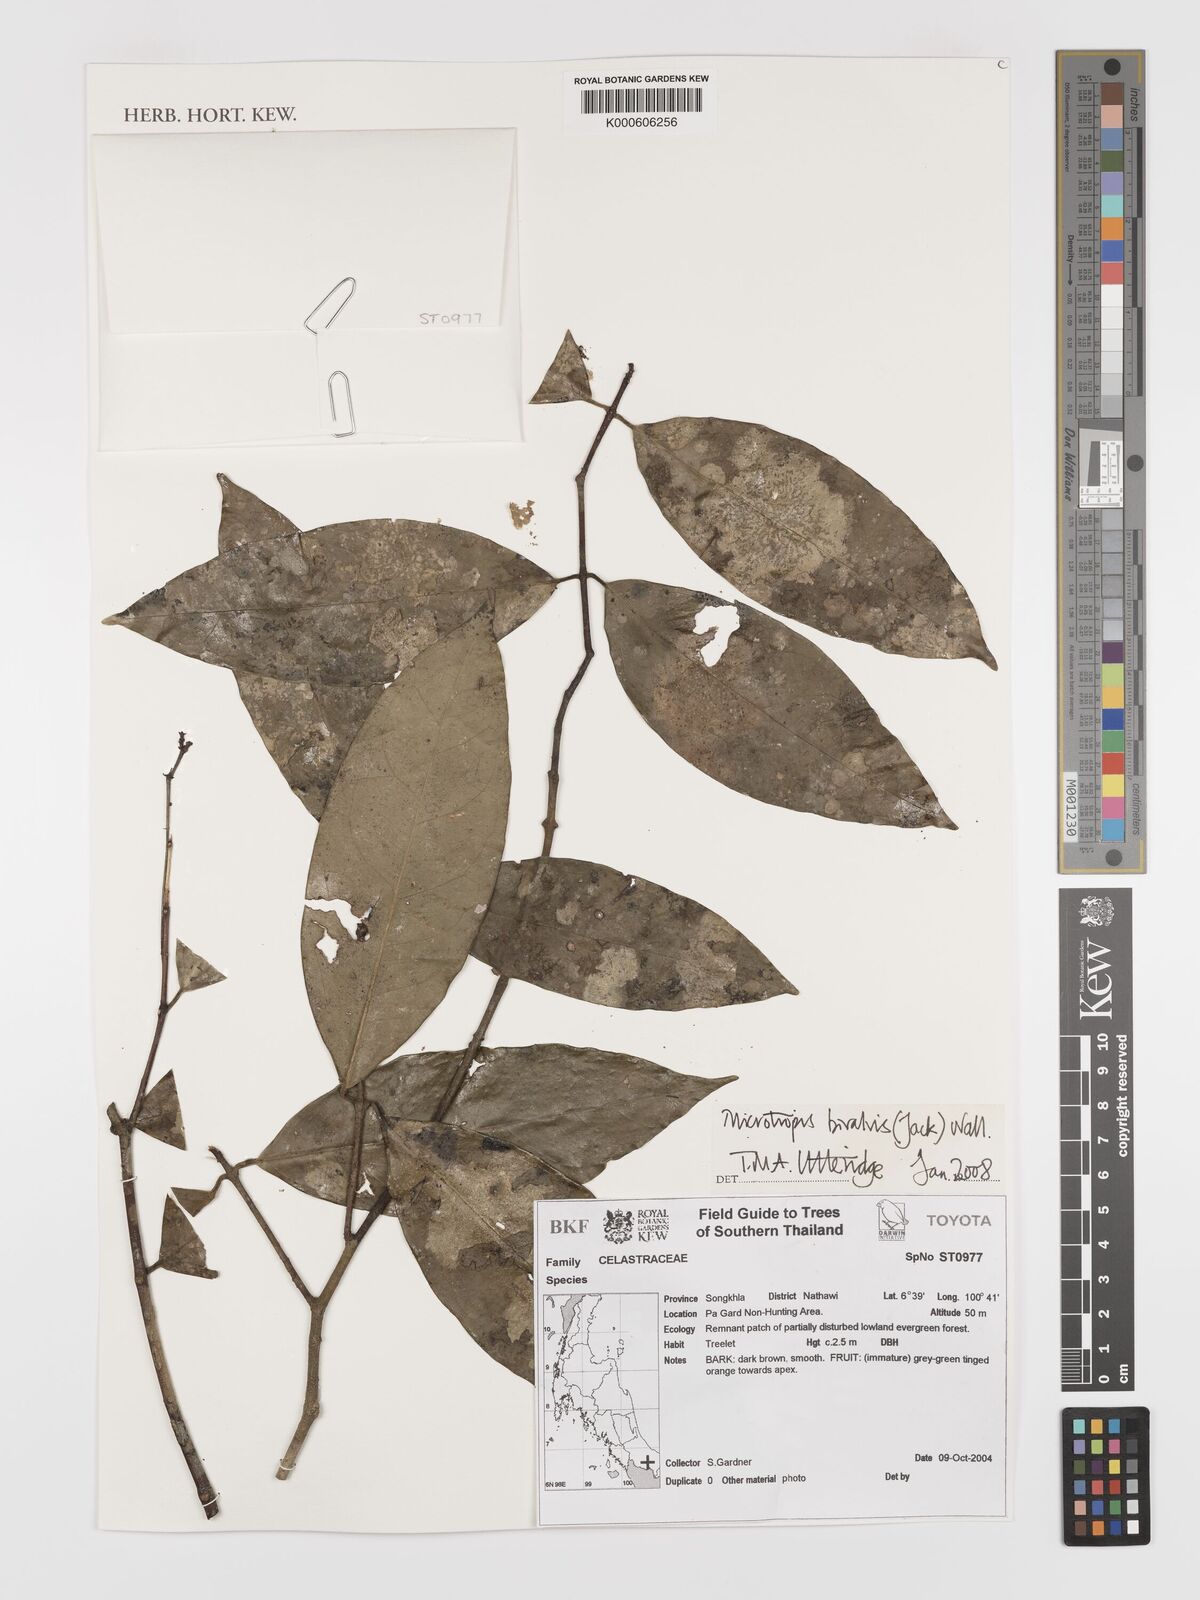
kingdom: Plantae
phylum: Tracheophyta
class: Magnoliopsida
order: Celastrales
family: Celastraceae
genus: Microtropis
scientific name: Microtropis bivalvis
